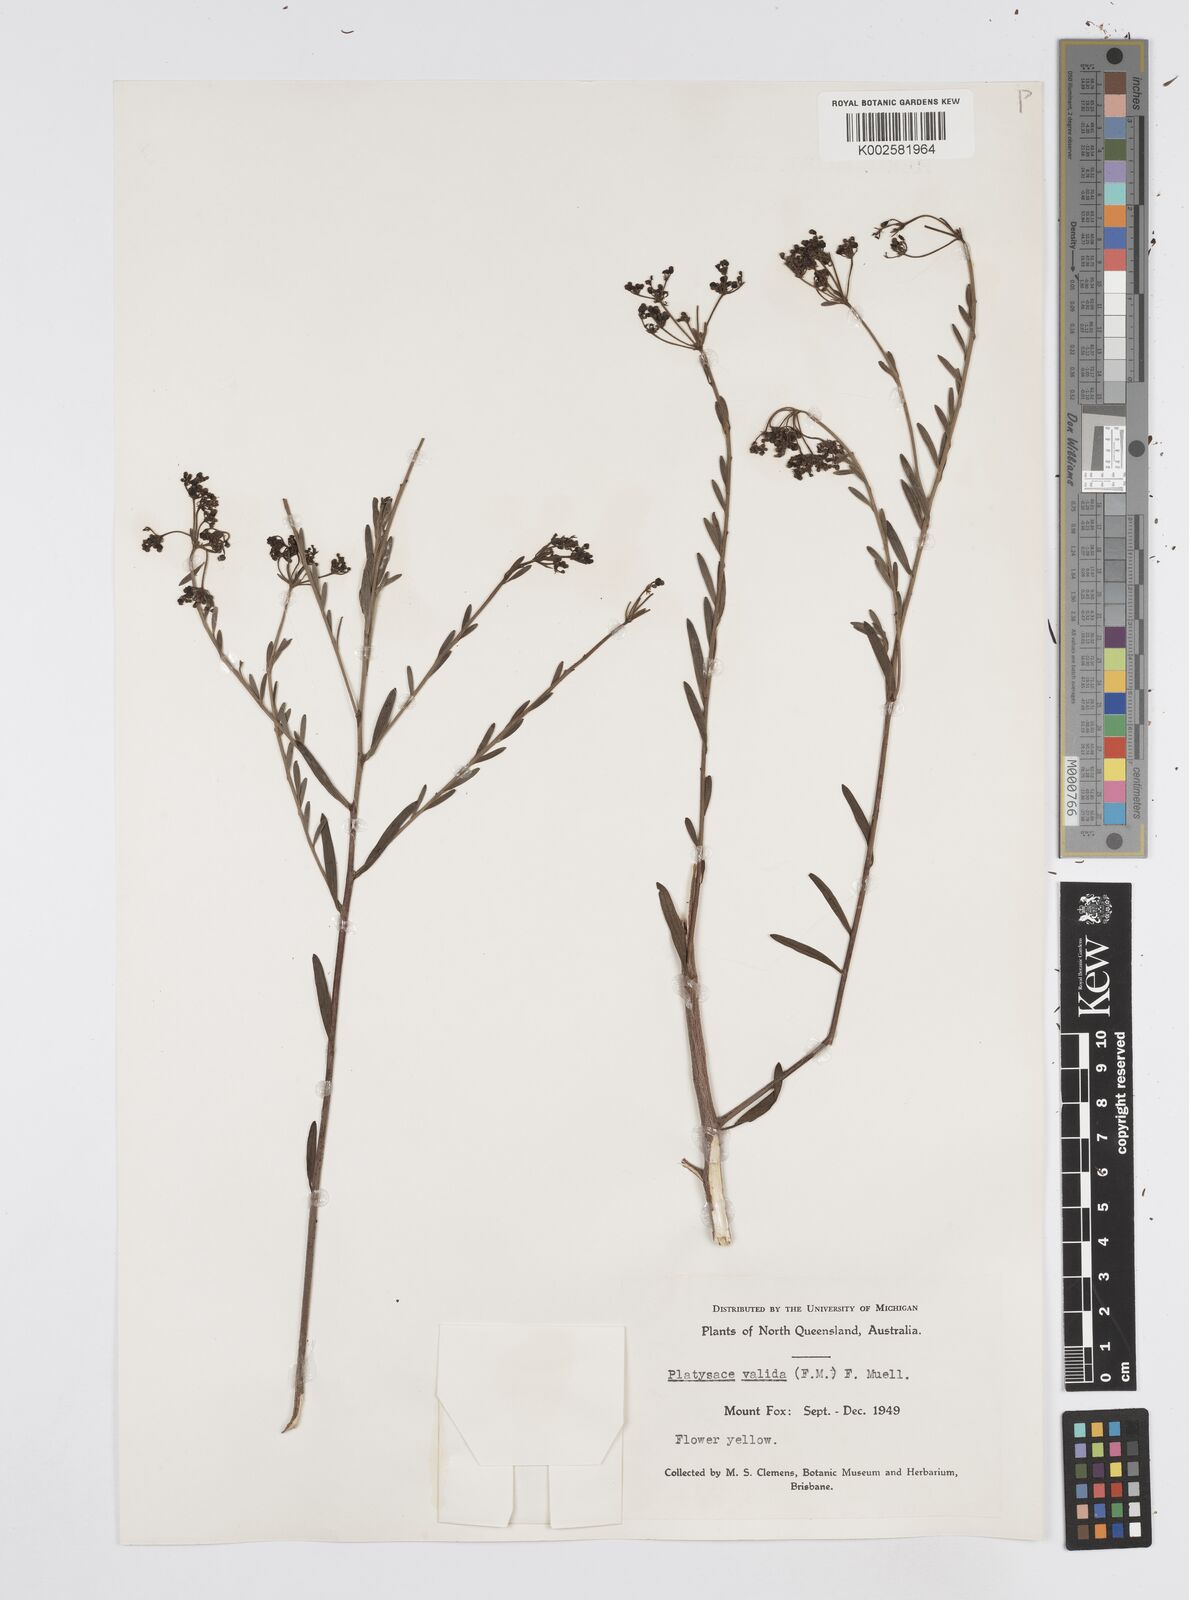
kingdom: Plantae
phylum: Tracheophyta
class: Magnoliopsida
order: Apiales
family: Apiaceae
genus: Platysace
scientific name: Platysace valida
